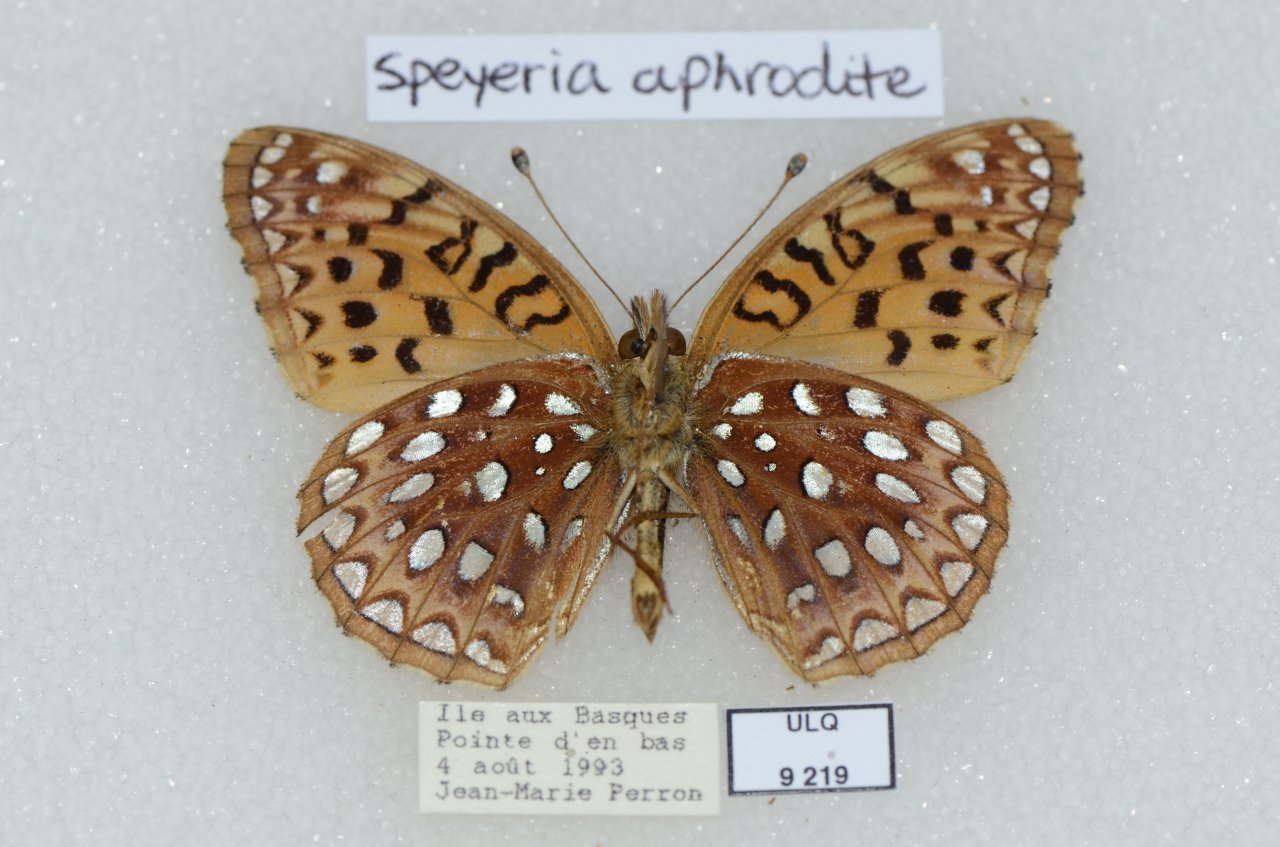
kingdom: Animalia
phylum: Arthropoda
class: Insecta
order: Lepidoptera
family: Nymphalidae
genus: Speyeria
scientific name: Speyeria aphrodite
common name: Aphrodite Fritillary
